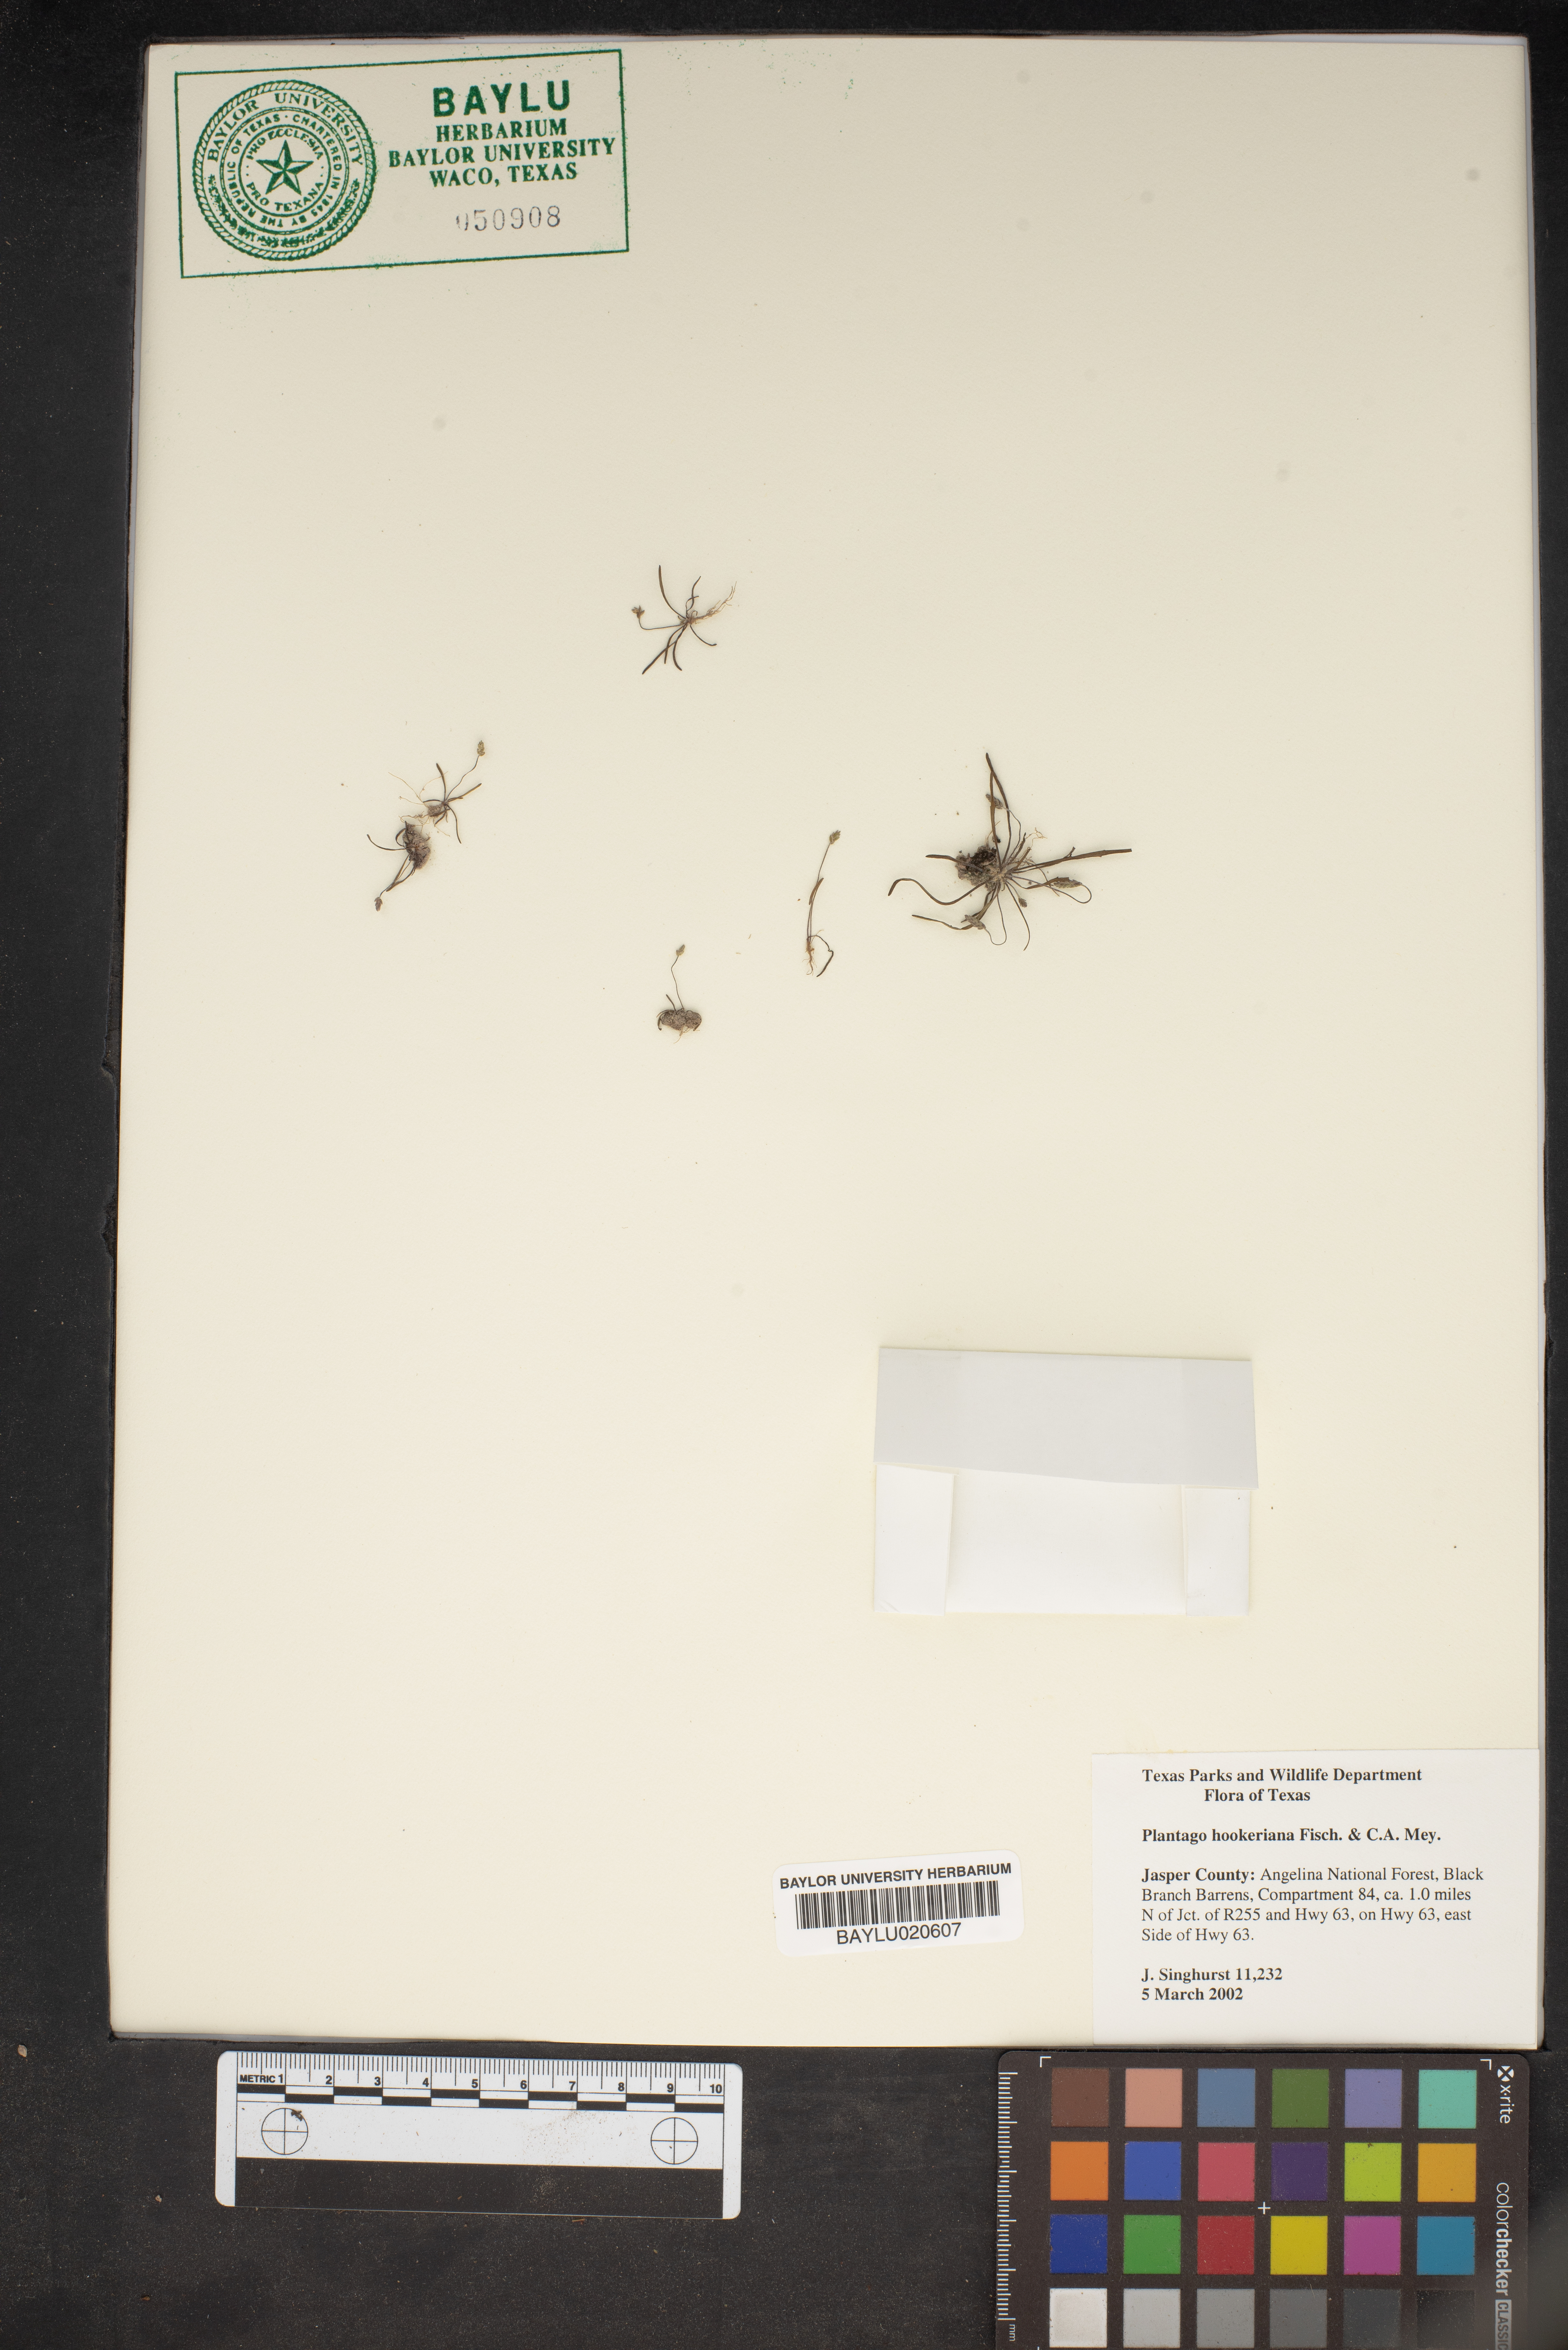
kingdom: Plantae
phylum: Tracheophyta
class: Magnoliopsida
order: Lamiales
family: Plantaginaceae
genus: Plantago
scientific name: Plantago hookeriana
